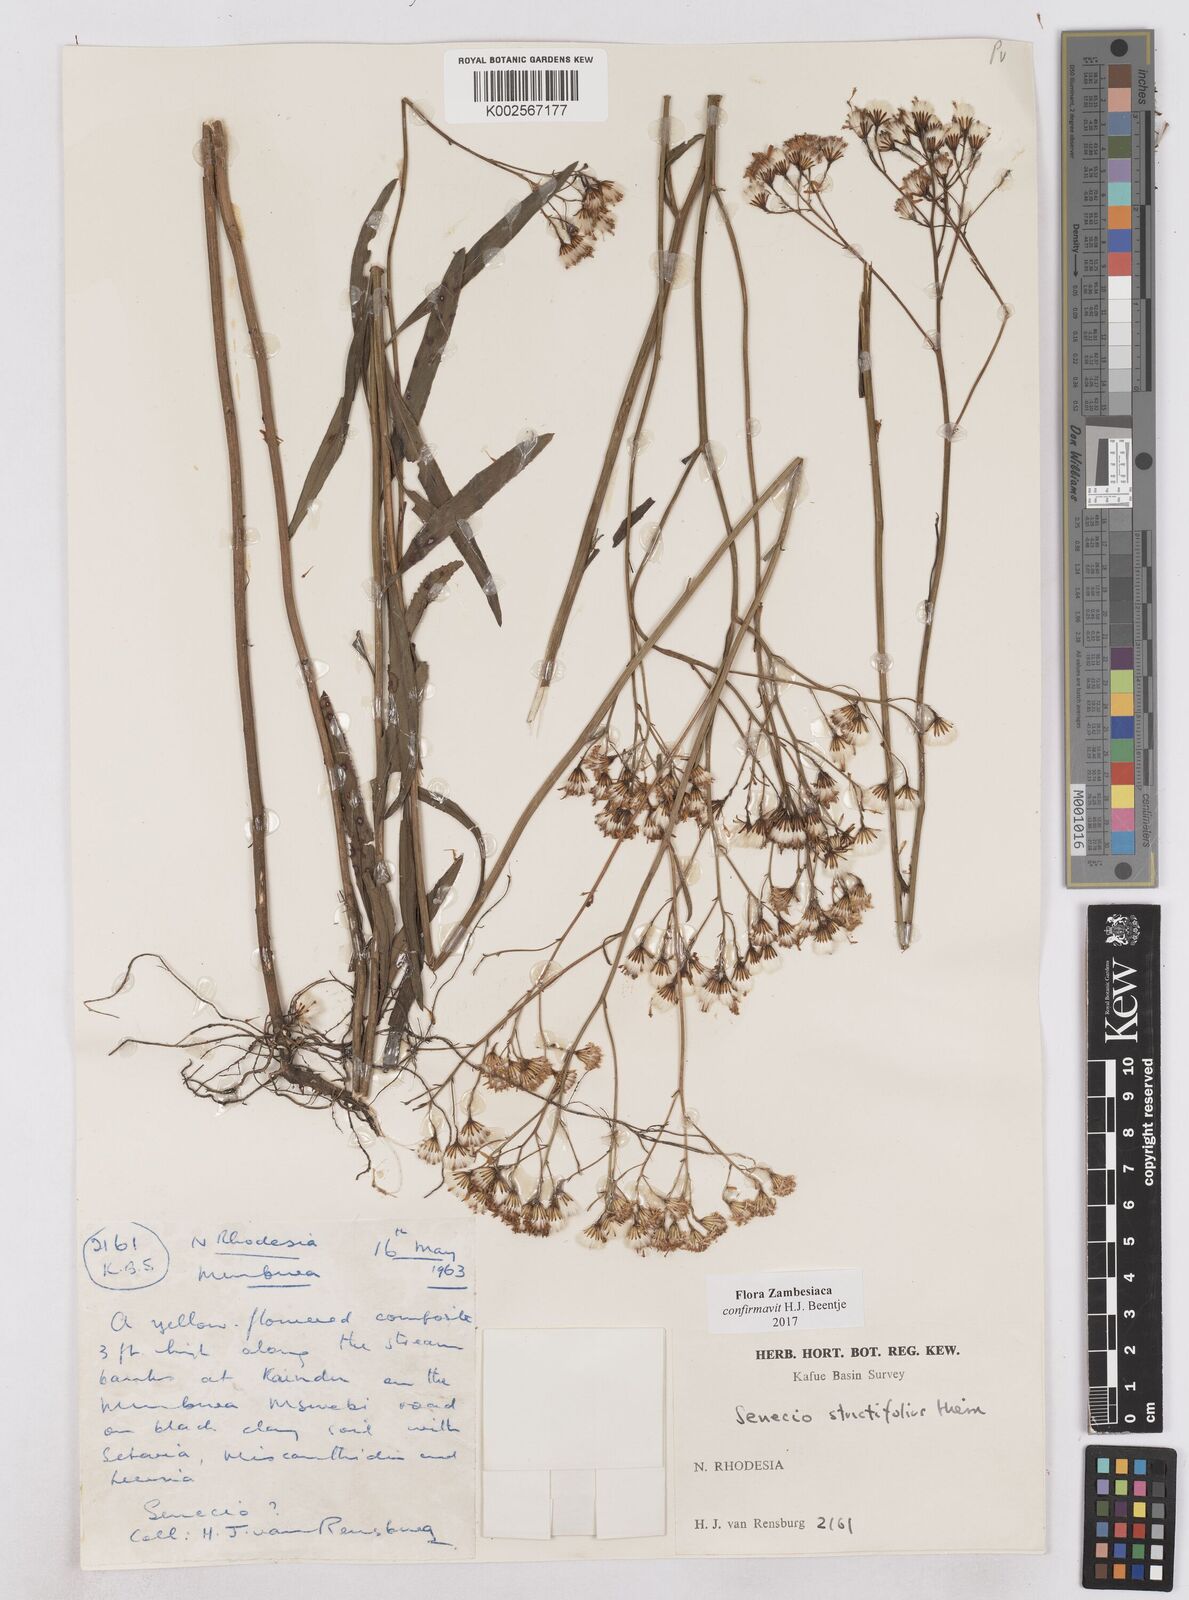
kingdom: Plantae
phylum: Tracheophyta
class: Magnoliopsida
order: Asterales
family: Asteraceae
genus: Senecio
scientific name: Senecio strictifolius
